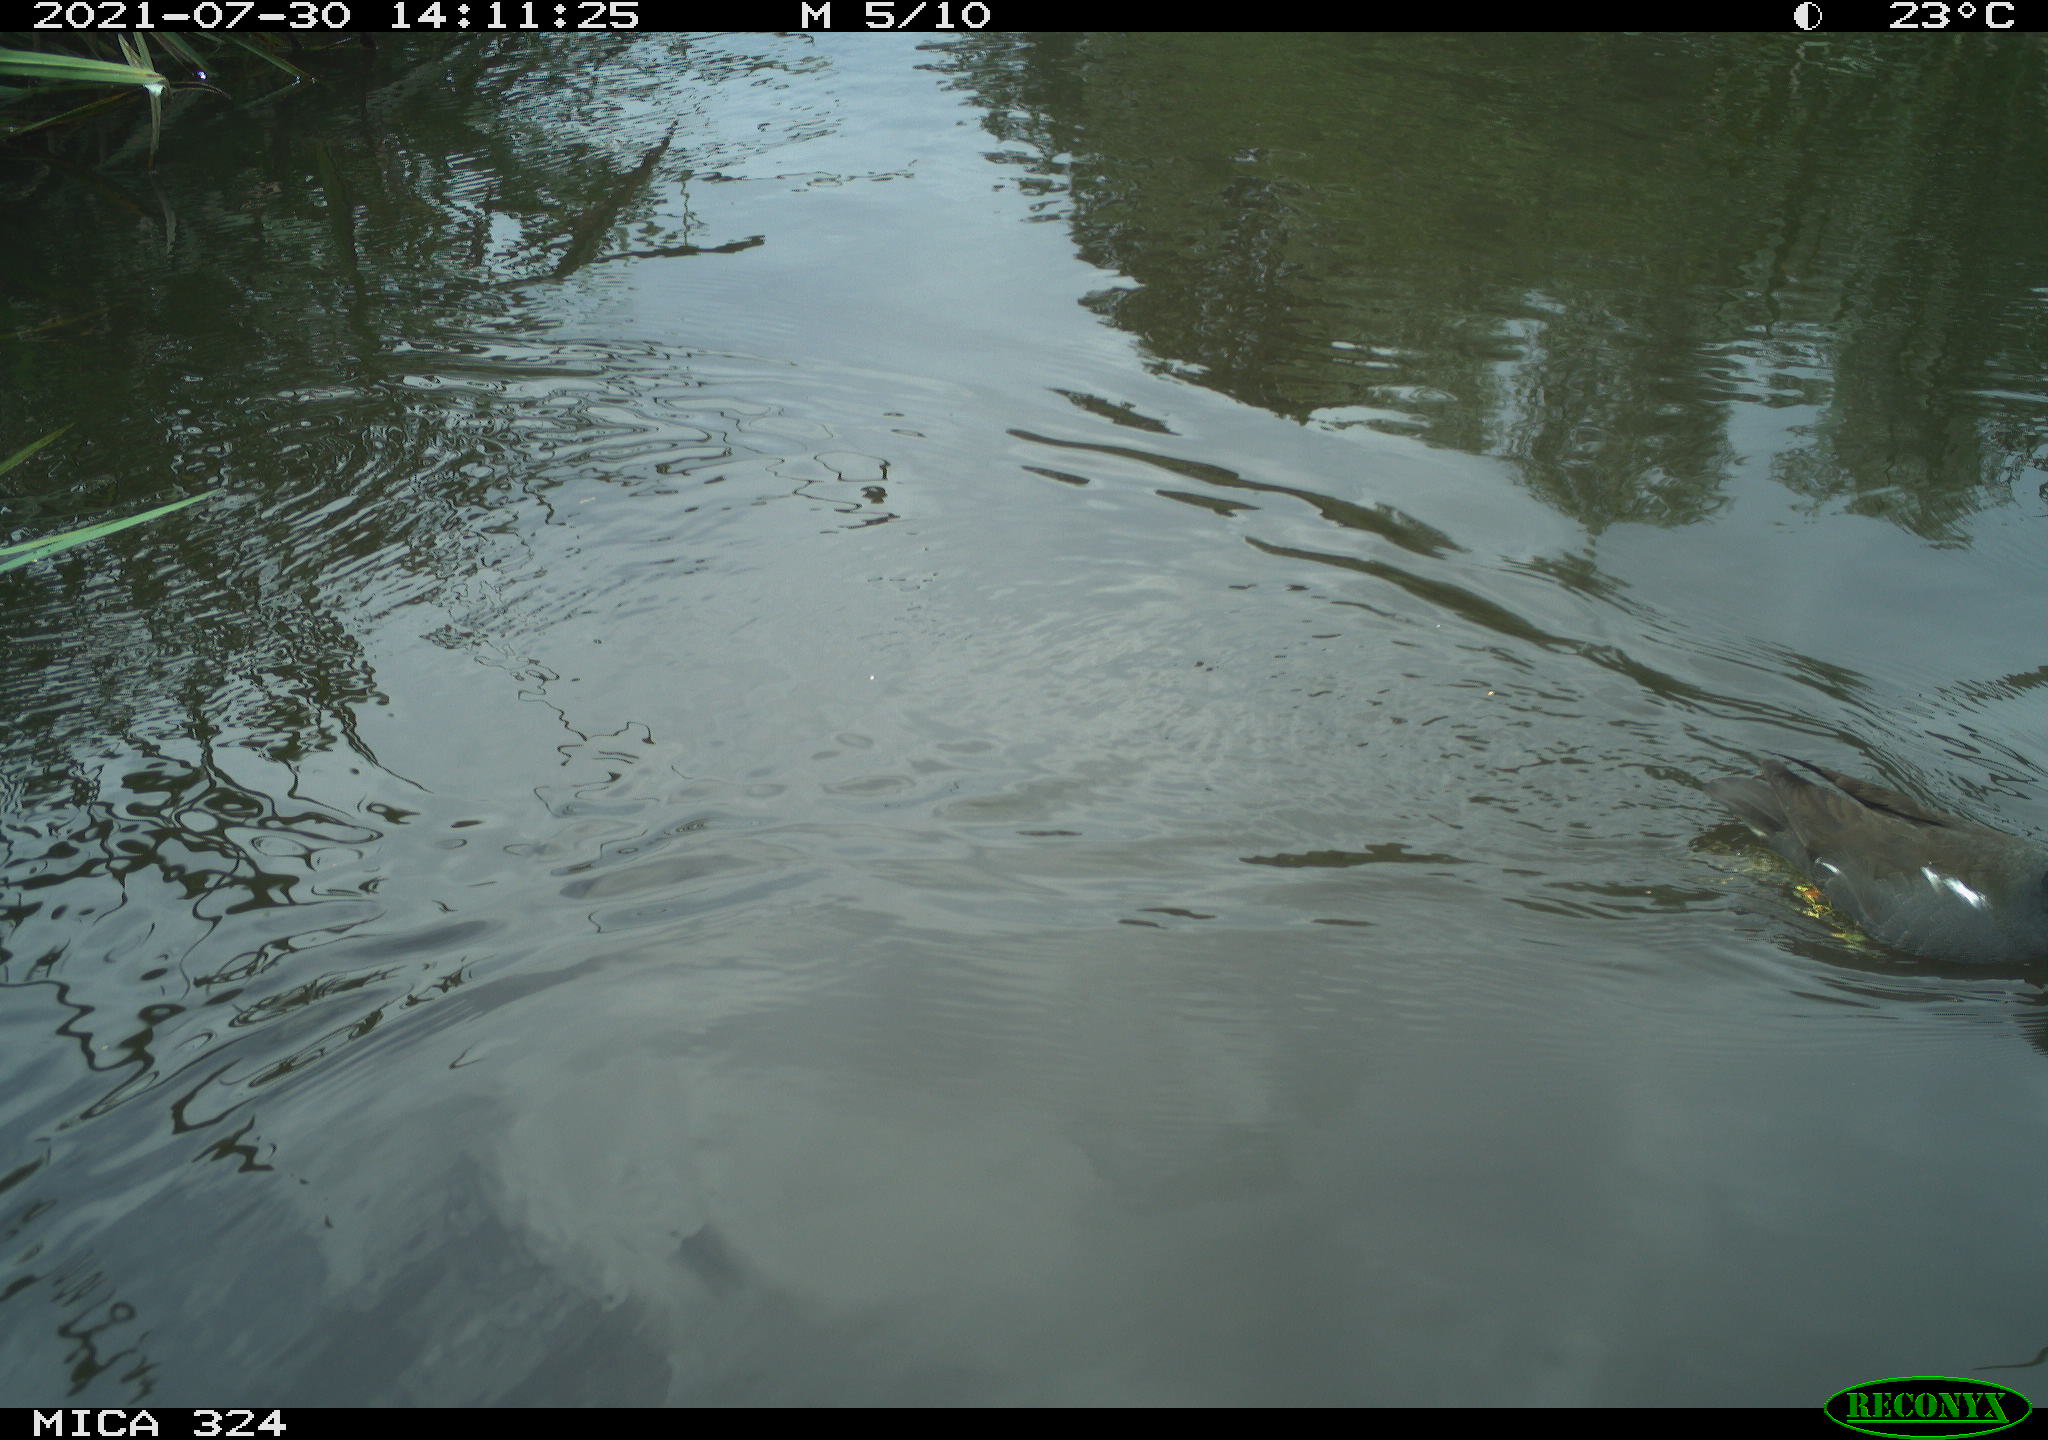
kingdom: Animalia
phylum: Chordata
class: Aves
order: Gruiformes
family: Rallidae
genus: Gallinula
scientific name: Gallinula chloropus
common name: Common moorhen
